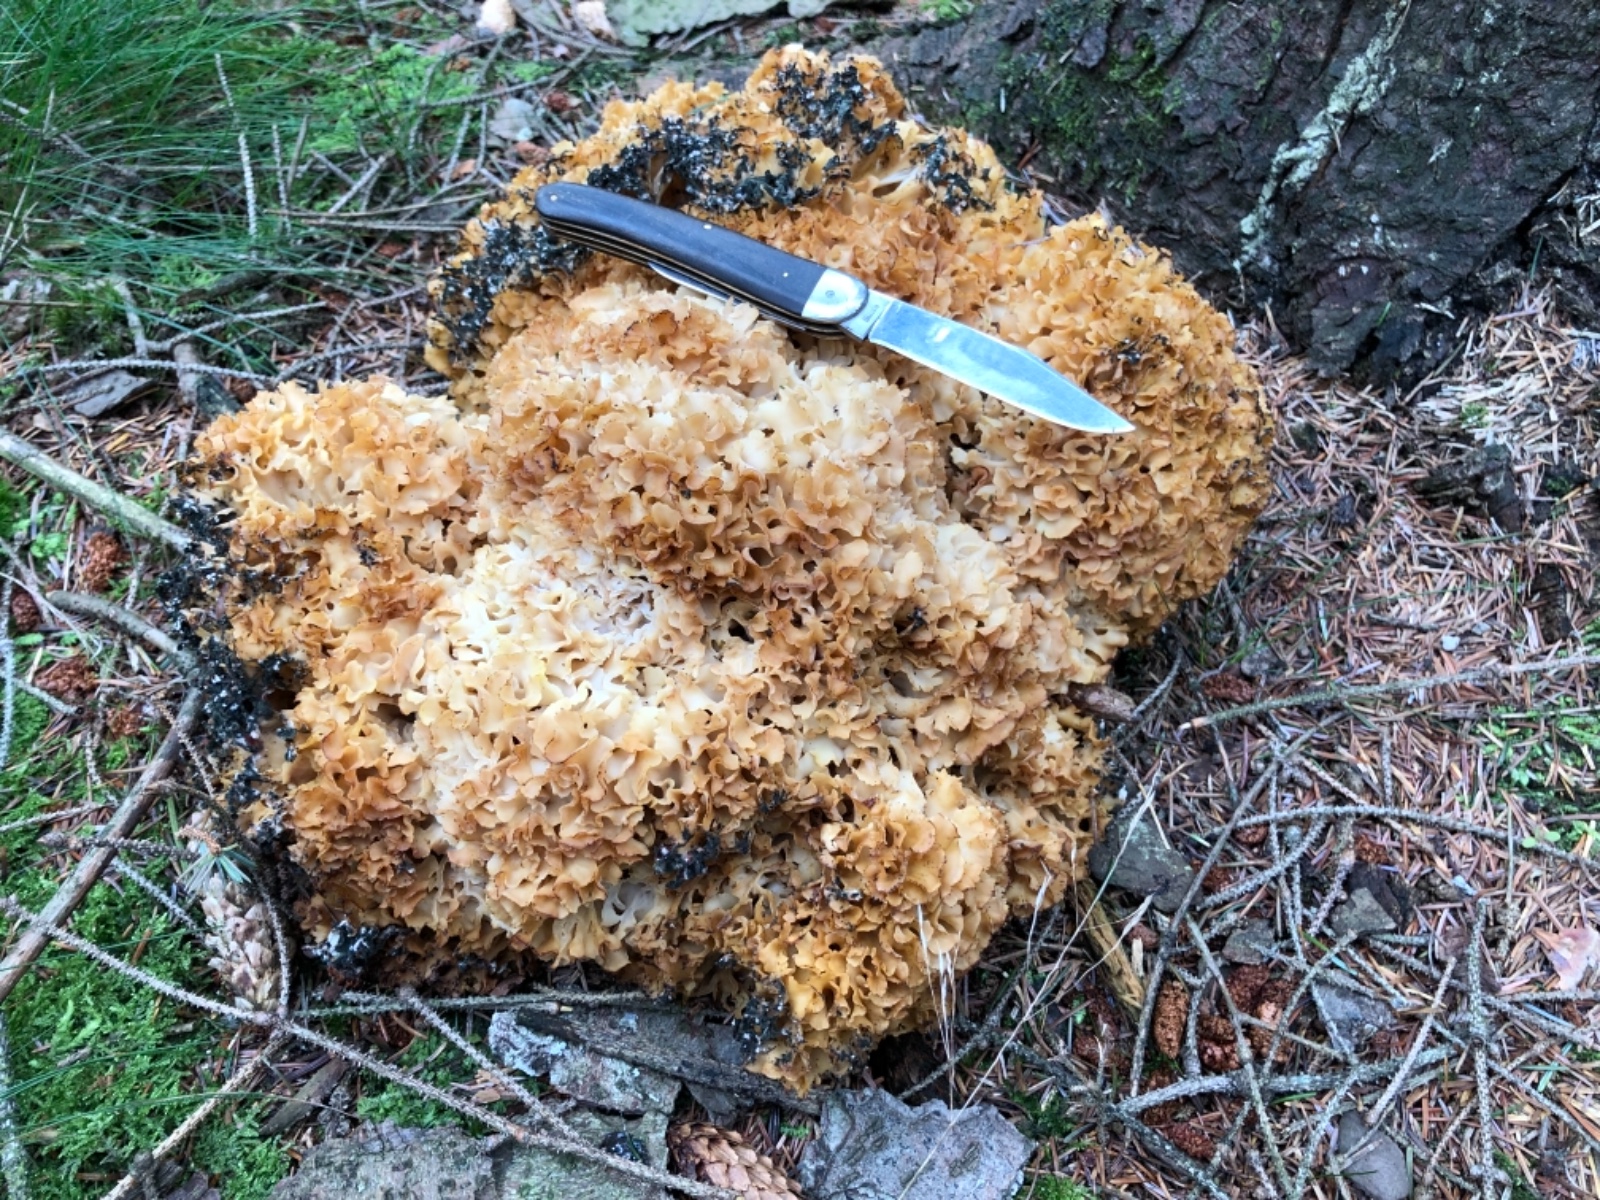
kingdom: Fungi
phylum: Basidiomycota
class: Agaricomycetes
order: Polyporales
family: Sparassidaceae
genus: Sparassis
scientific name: Sparassis crispa
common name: kruset blomkålssvamp
